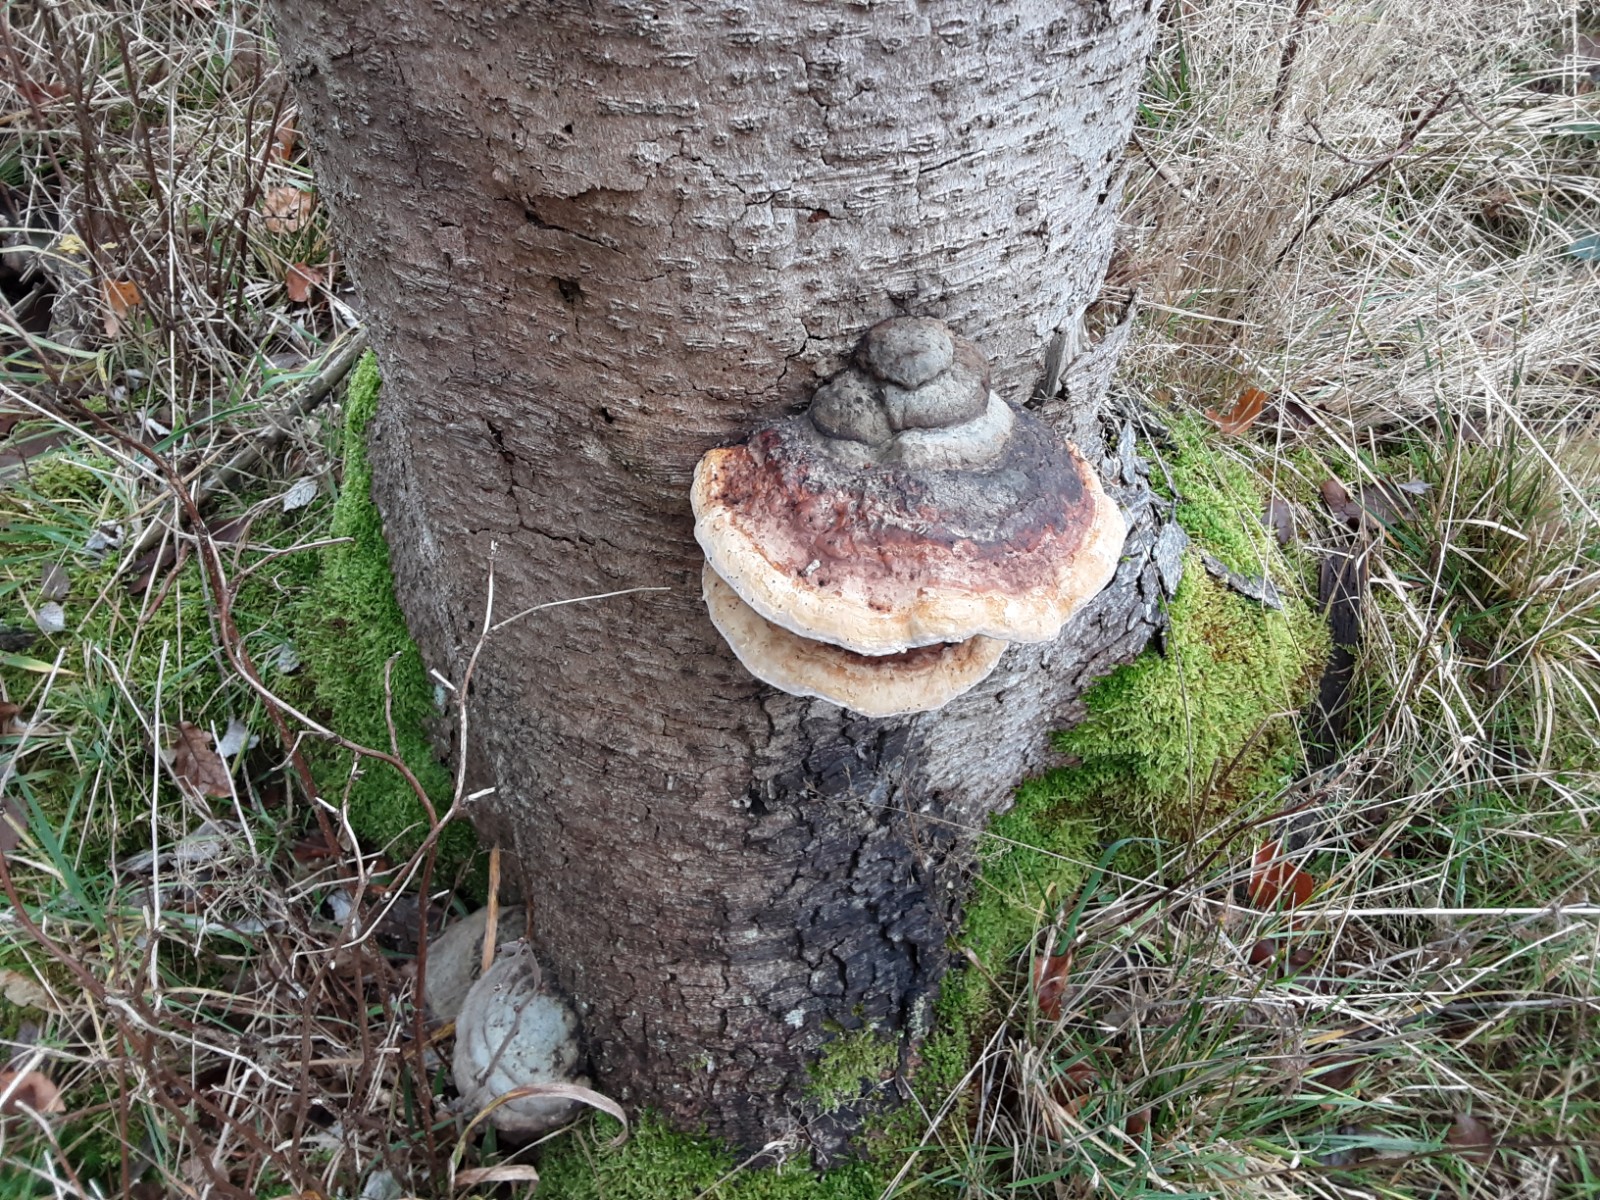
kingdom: Fungi
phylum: Basidiomycota
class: Agaricomycetes
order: Polyporales
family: Fomitopsidaceae
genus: Fomitopsis
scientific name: Fomitopsis pinicola
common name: randbæltet hovporesvamp
